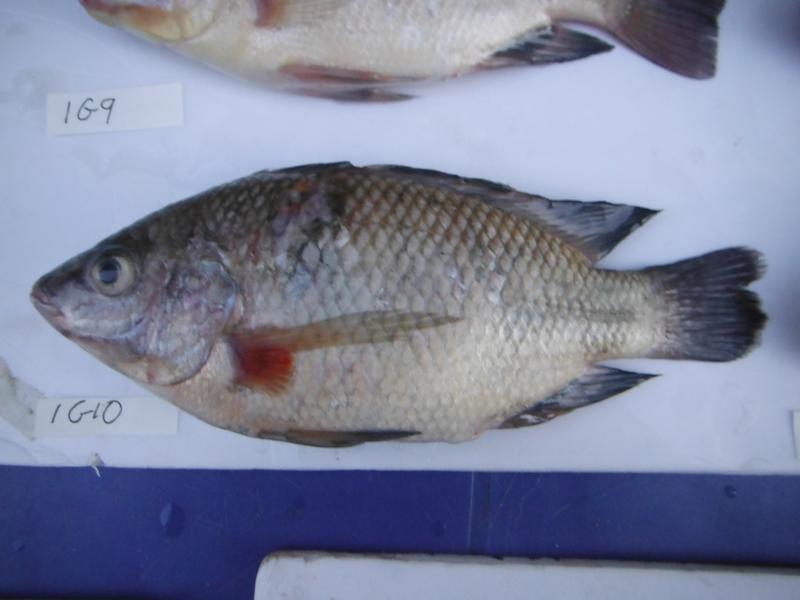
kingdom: Animalia
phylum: Chordata
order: Perciformes
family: Cichlidae
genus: Oreochromis
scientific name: Oreochromis rukwaensis
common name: Lake rukwa tilapia
